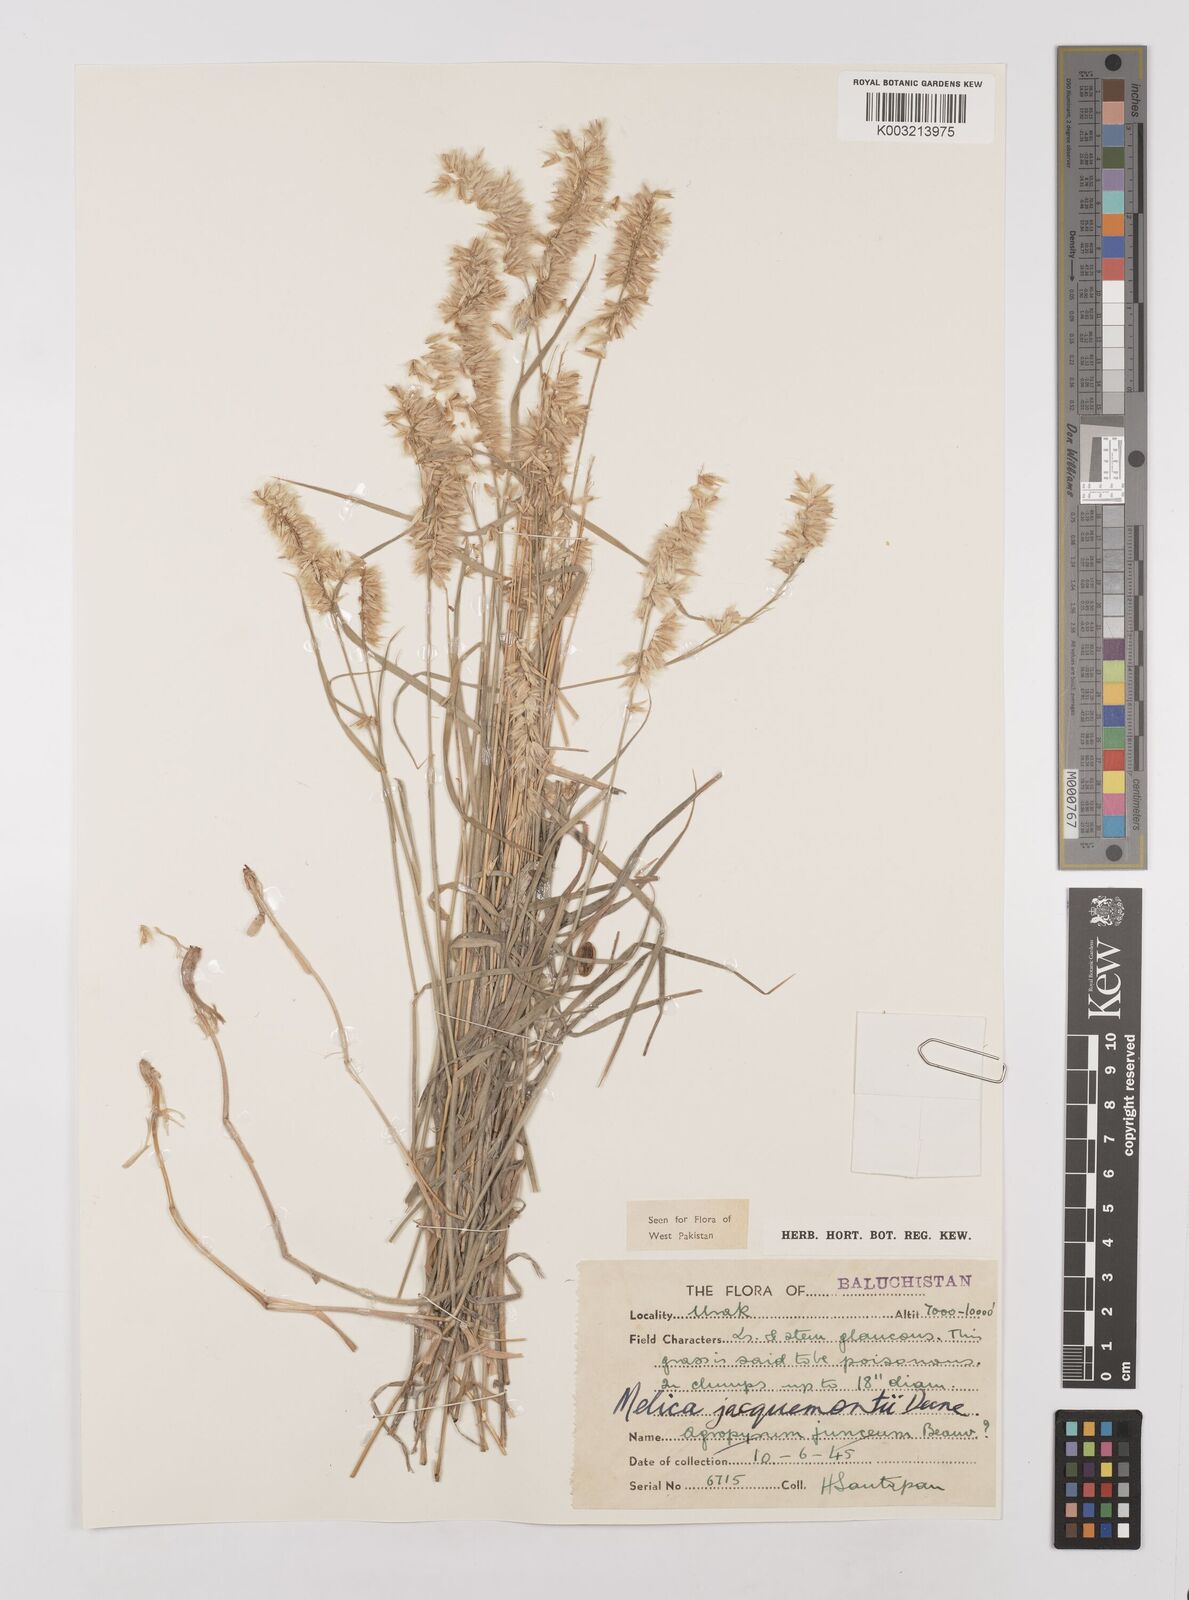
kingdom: Plantae
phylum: Tracheophyta
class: Liliopsida
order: Poales
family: Poaceae
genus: Melica
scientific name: Melica persica
